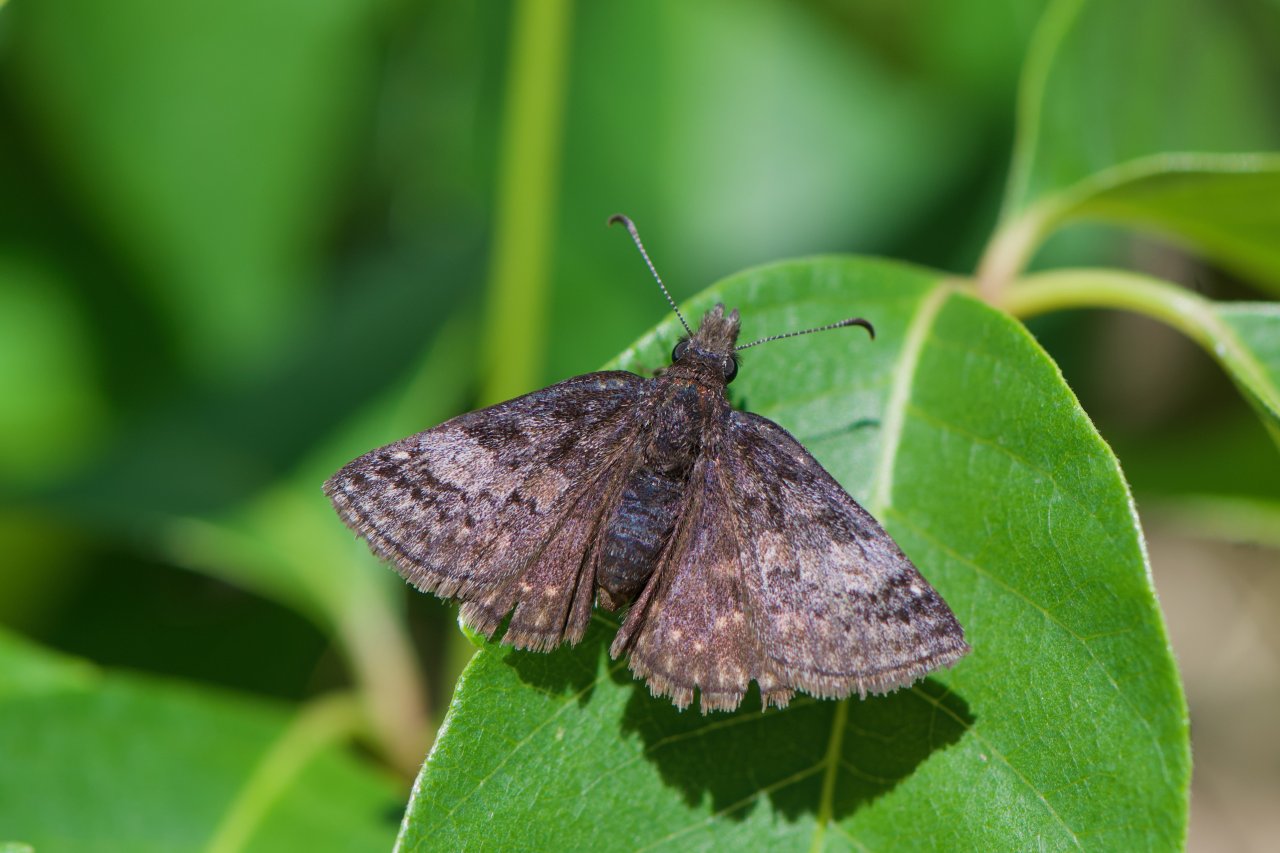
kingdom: Animalia
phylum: Arthropoda
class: Insecta
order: Lepidoptera
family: Hesperiidae
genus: Erynnis
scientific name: Erynnis icelus
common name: Dreamy Duskywing
